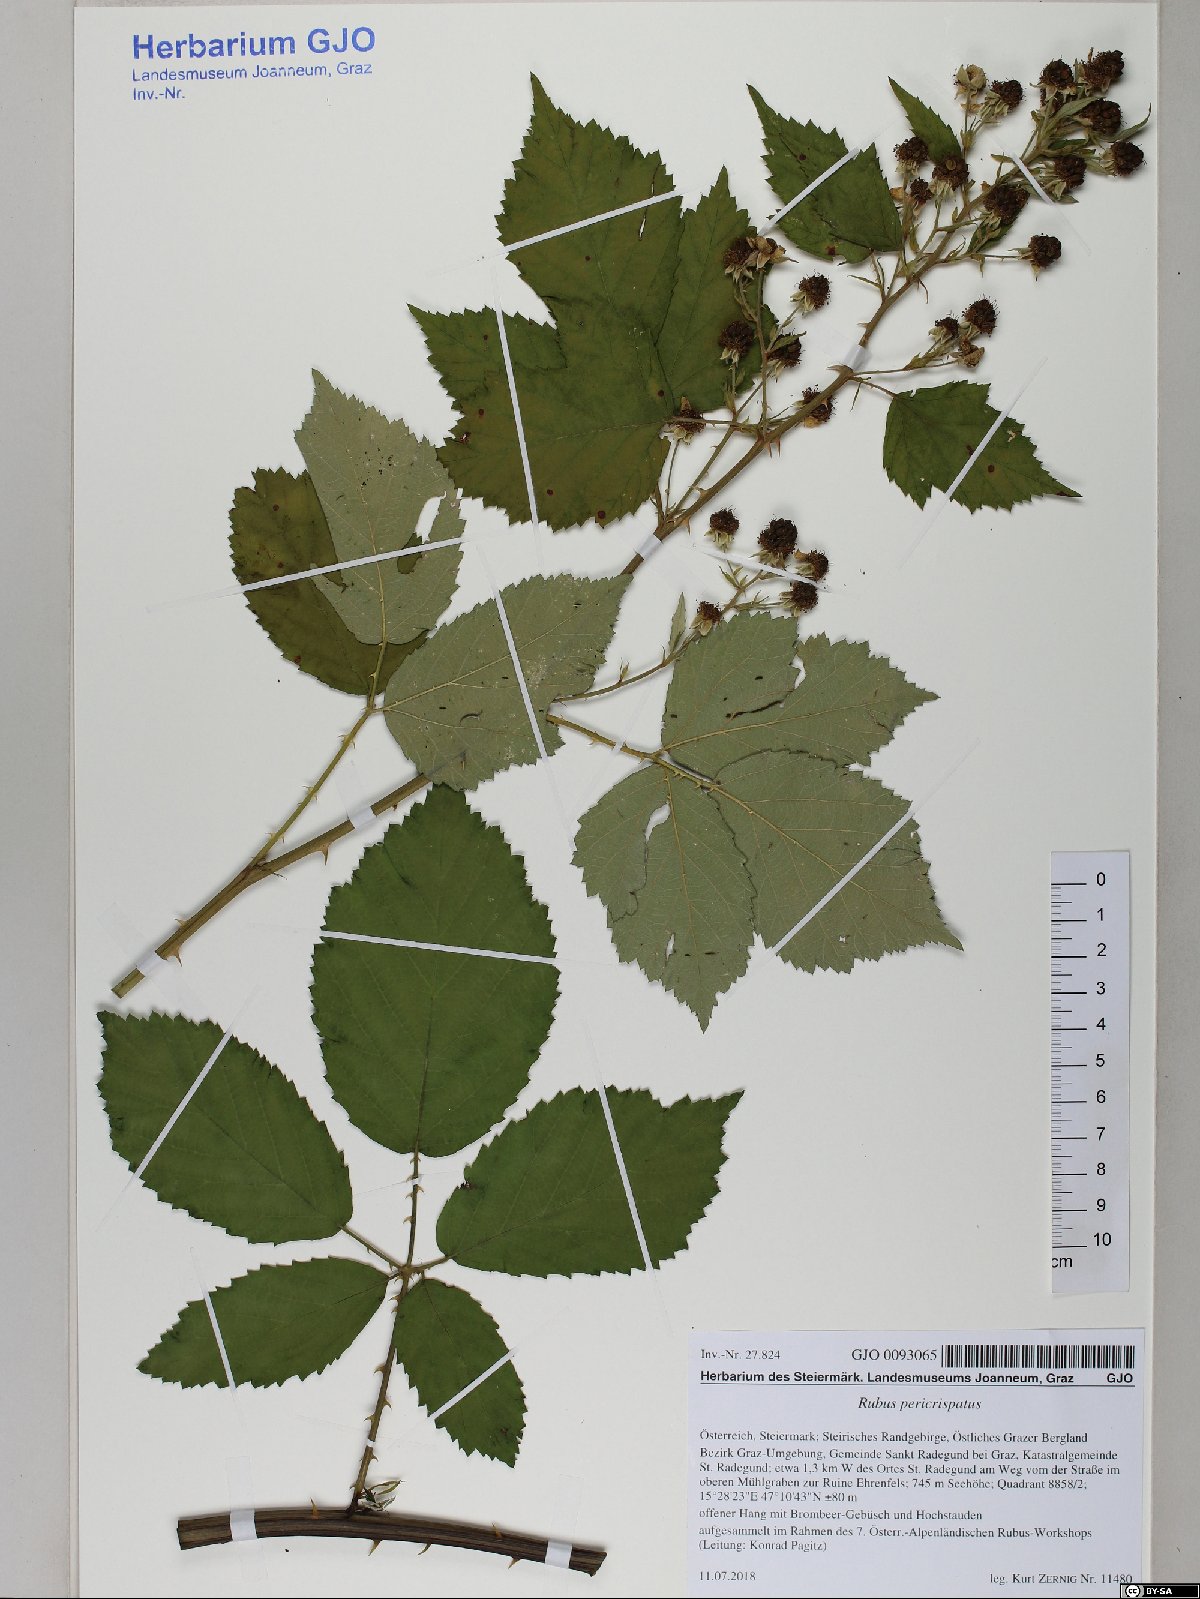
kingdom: Plantae
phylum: Tracheophyta
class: Magnoliopsida
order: Rosales
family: Rosaceae
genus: Rubus
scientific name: Rubus pericrispatus
